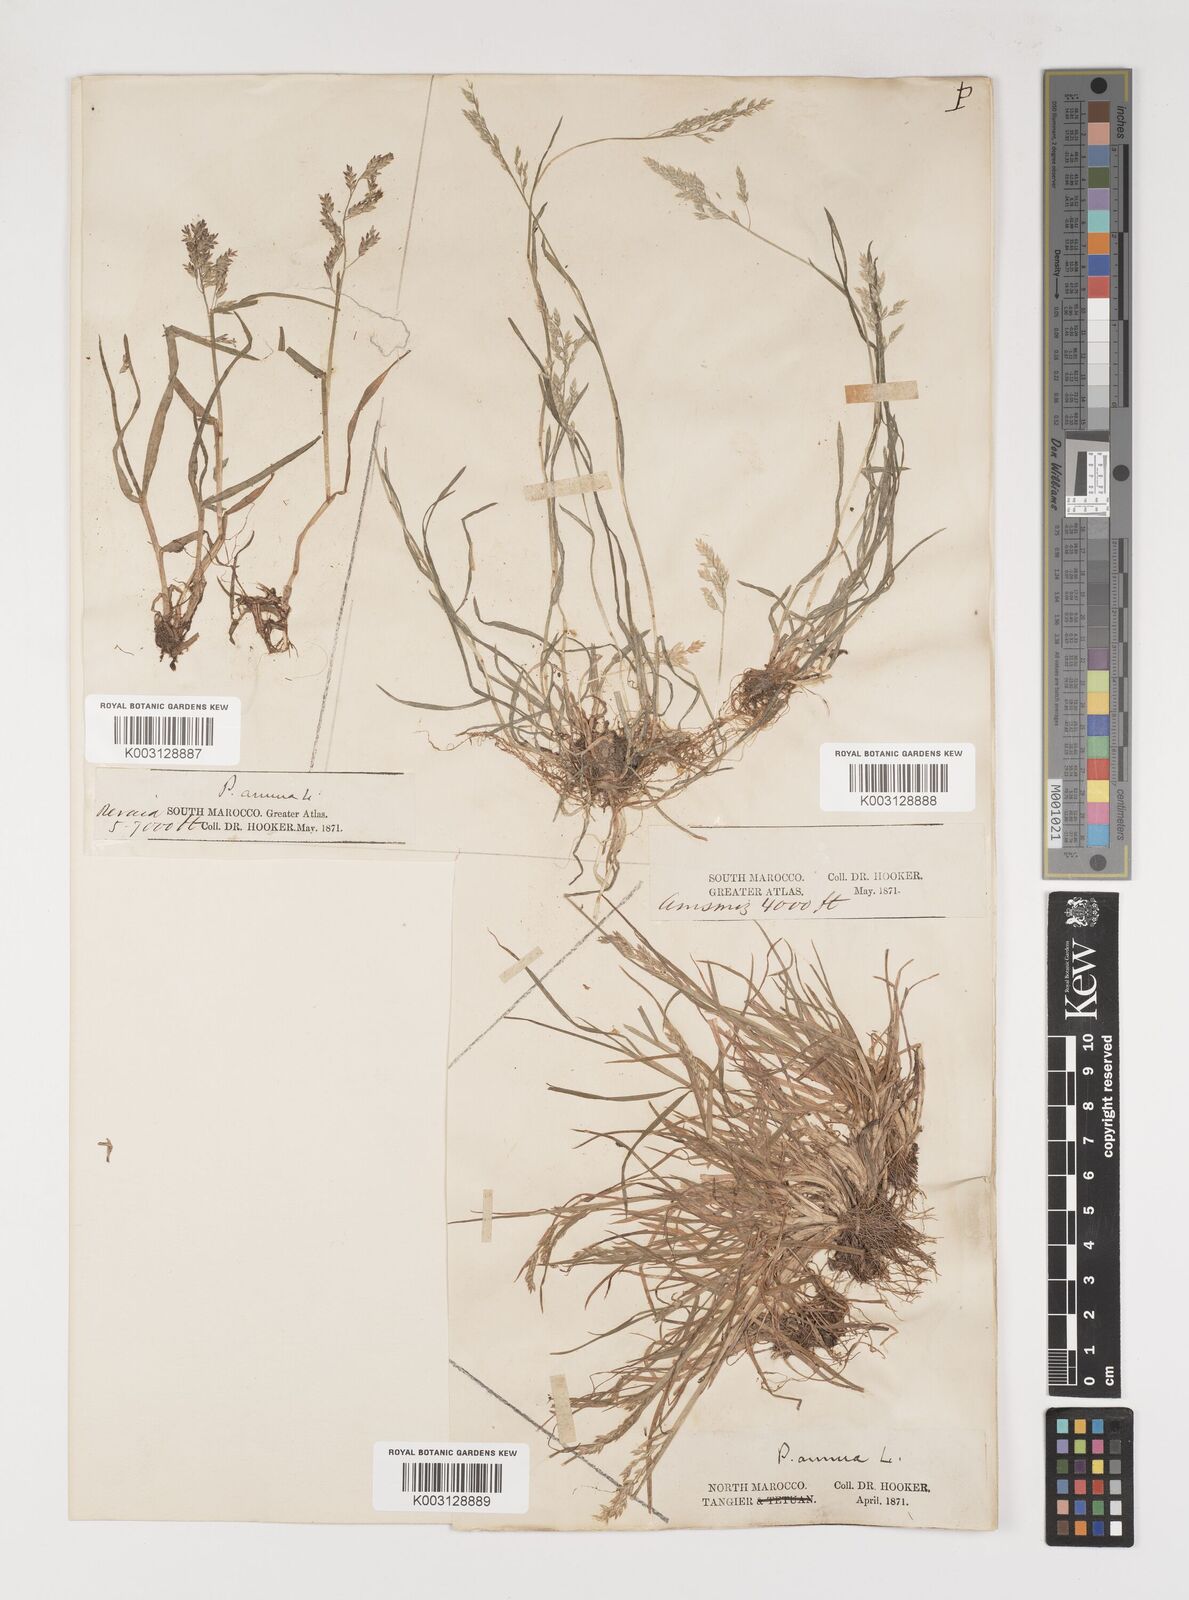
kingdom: Plantae
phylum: Tracheophyta
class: Liliopsida
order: Poales
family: Poaceae
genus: Poa
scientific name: Poa annua
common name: Annual bluegrass
